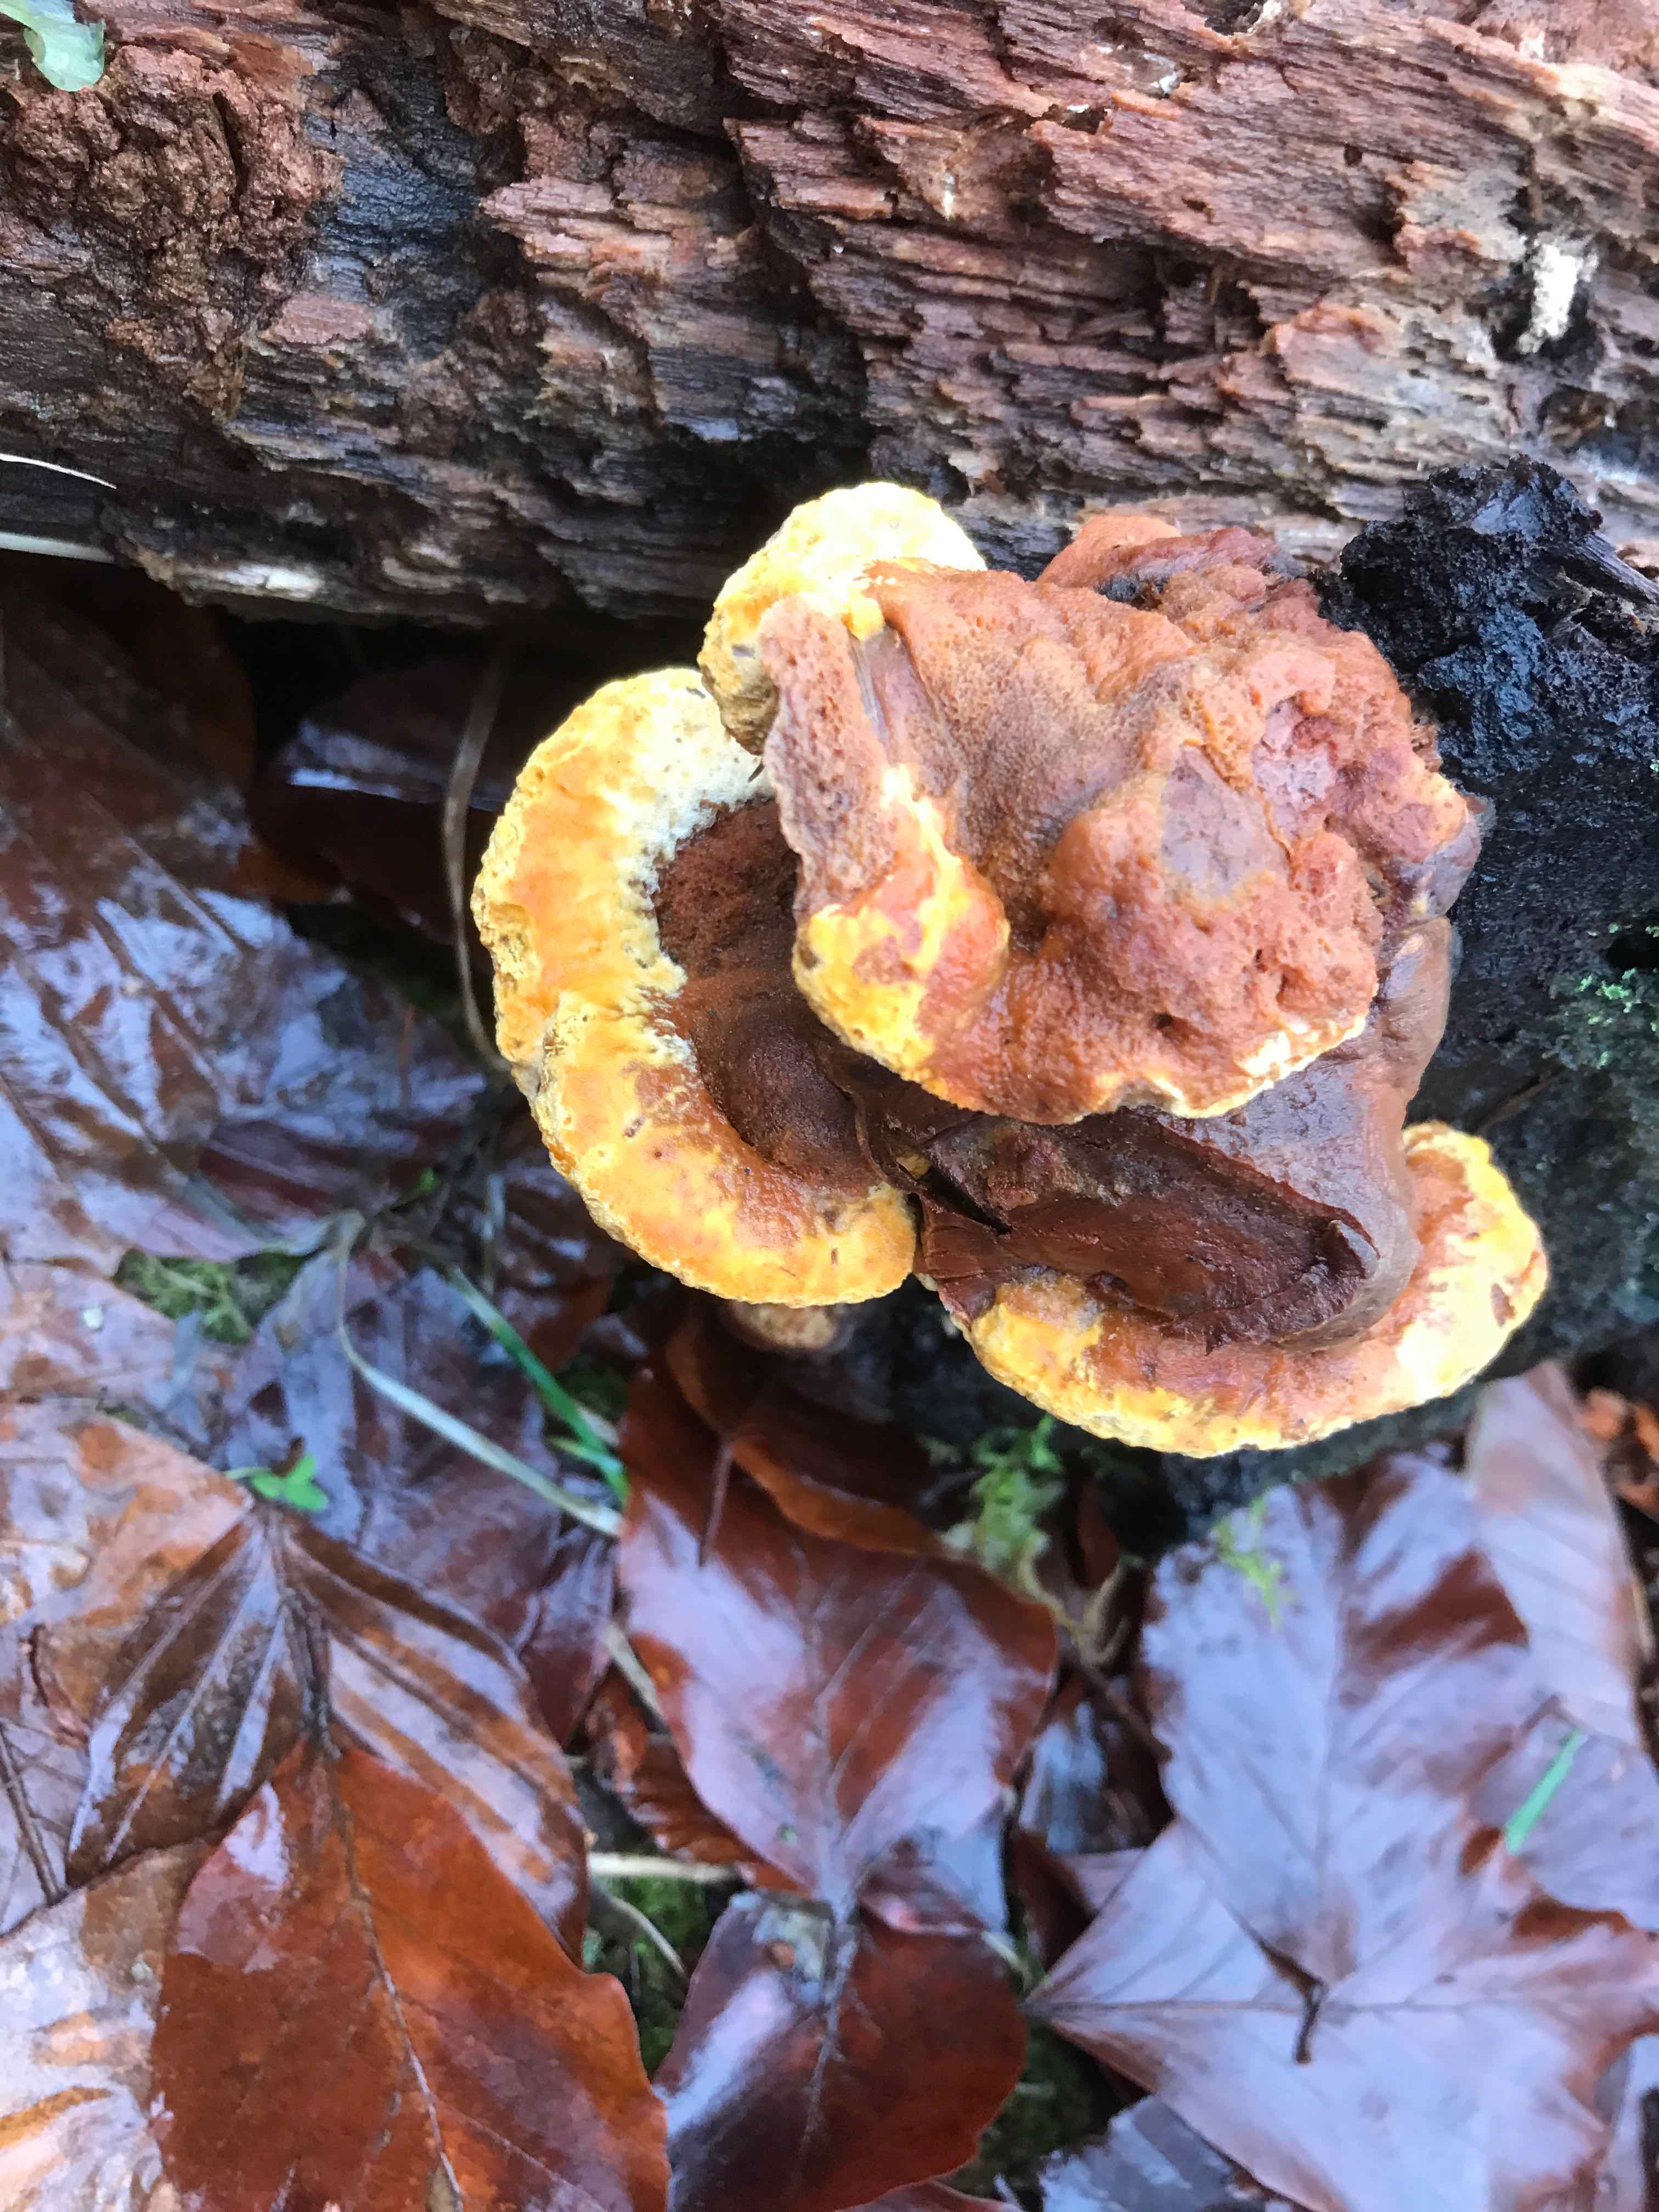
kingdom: Fungi
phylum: Basidiomycota
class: Agaricomycetes
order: Gloeophyllales
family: Gloeophyllaceae
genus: Gloeophyllum
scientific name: Gloeophyllum odoratum
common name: duftende korkhat
